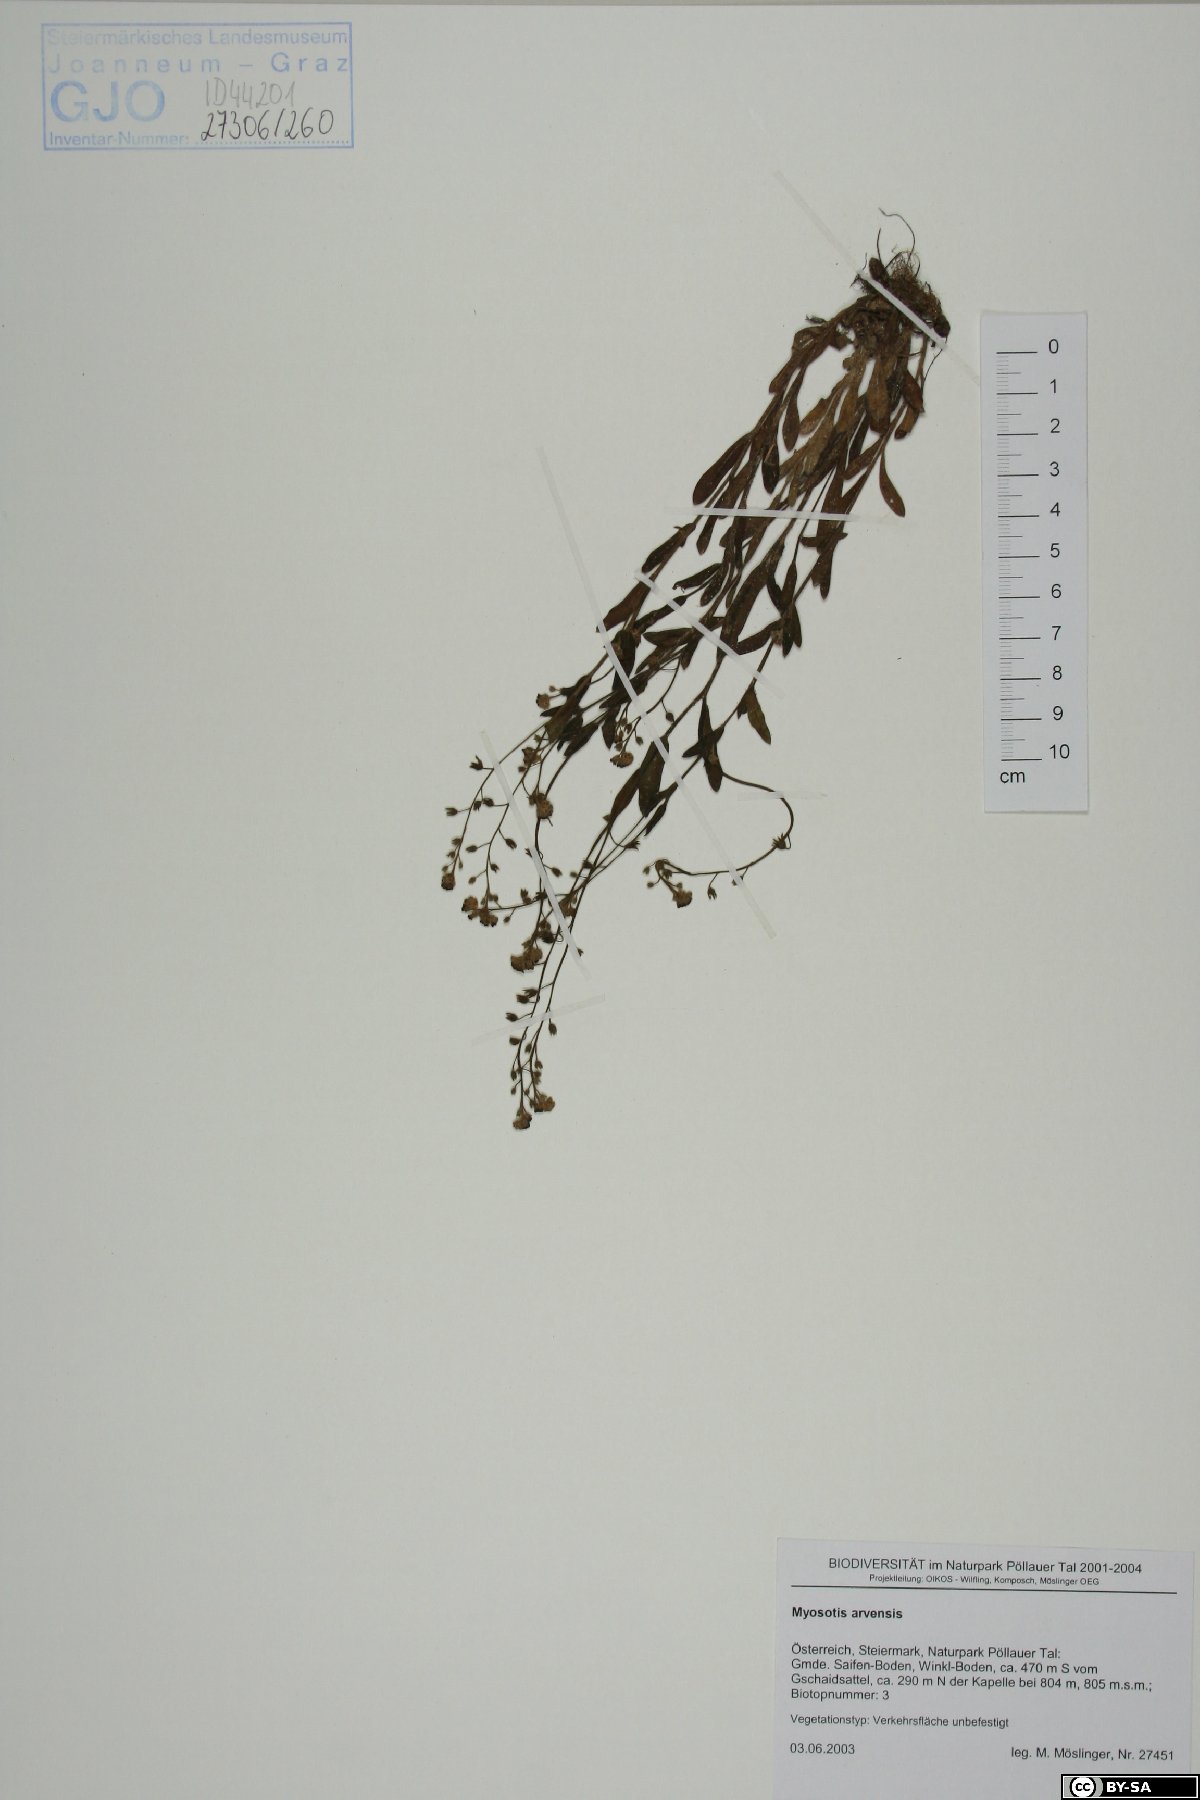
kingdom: Plantae
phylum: Tracheophyta
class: Magnoliopsida
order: Boraginales
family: Boraginaceae
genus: Myosotis
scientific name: Myosotis arvensis
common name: Field forget-me-not
